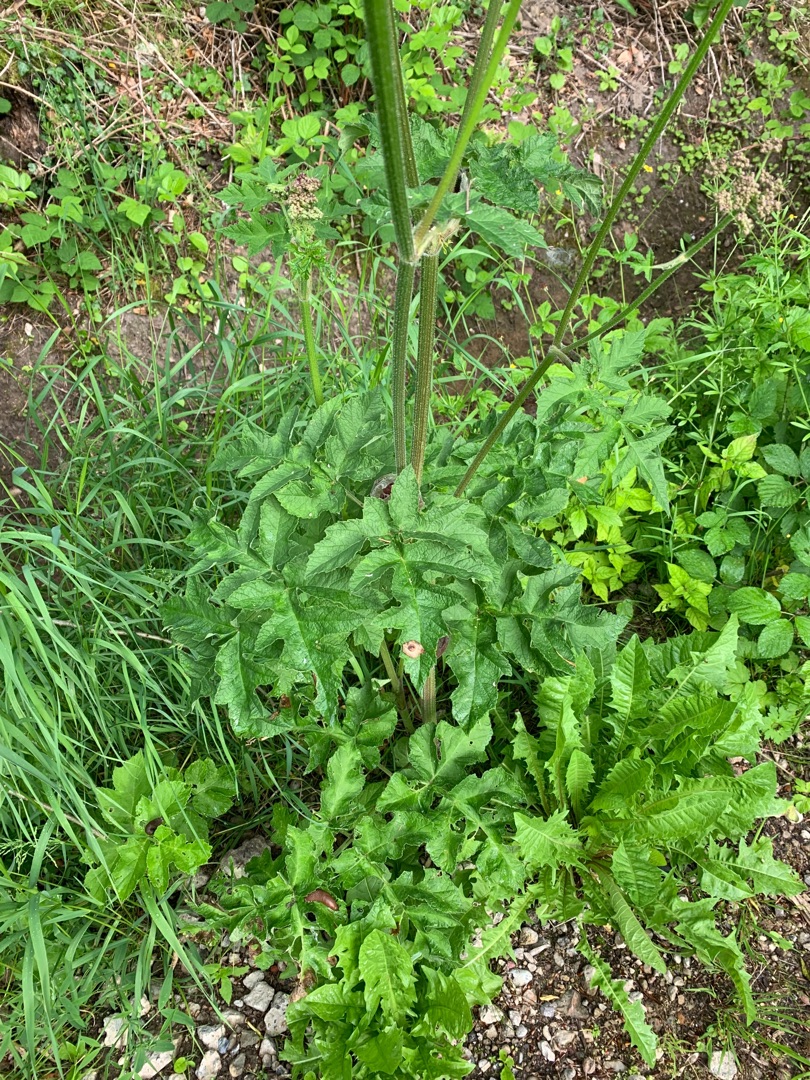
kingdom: Plantae
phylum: Tracheophyta
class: Magnoliopsida
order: Apiales
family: Apiaceae
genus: Heracleum
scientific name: Heracleum sphondylium
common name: Almindelig bjørneklo (underart)
